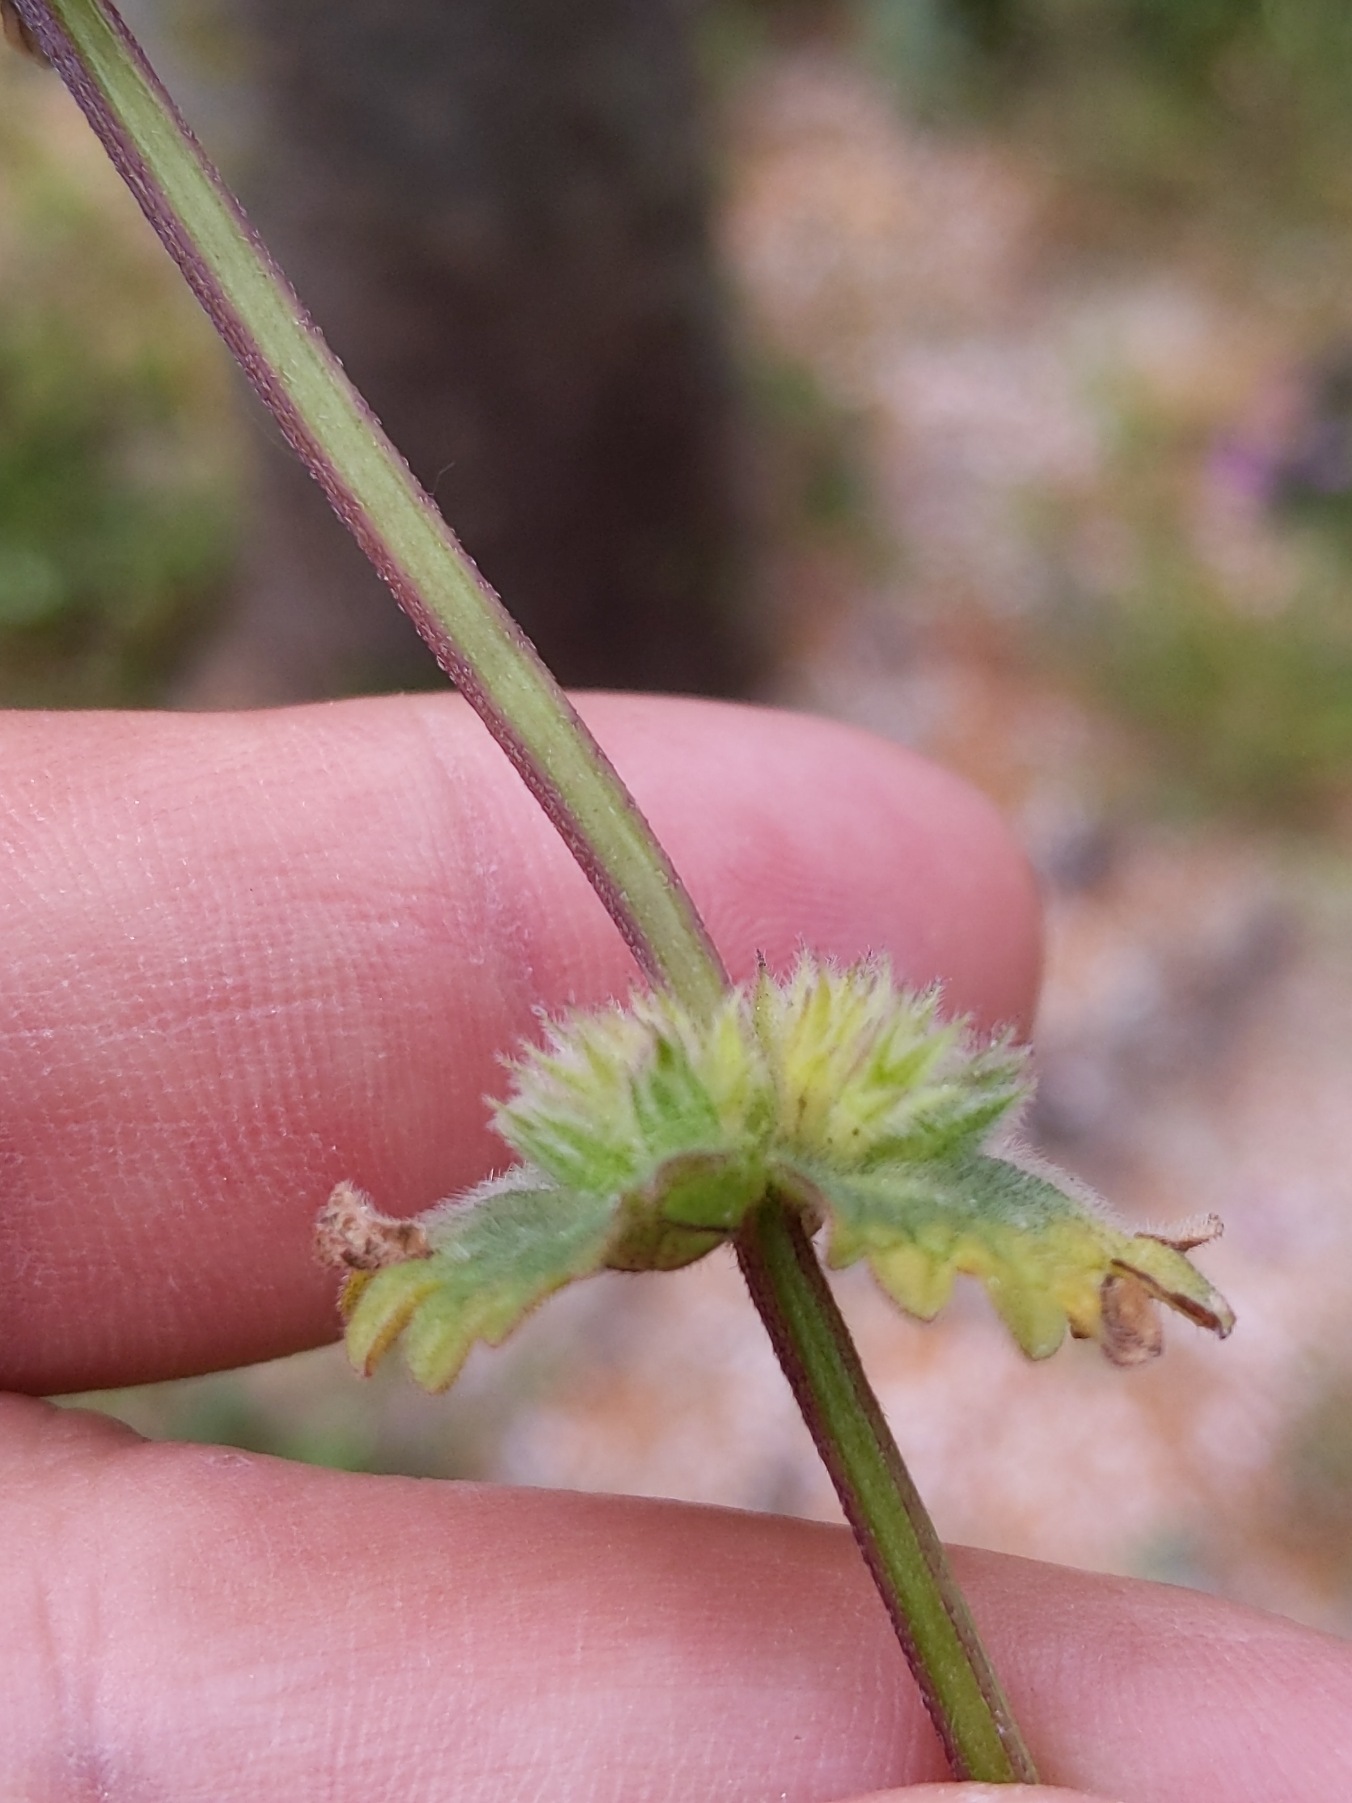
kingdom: Plantae
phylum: Tracheophyta
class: Magnoliopsida
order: Lamiales
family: Lamiaceae
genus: Lamium
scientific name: Lamium amplexicaule
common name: Liden tvetand
